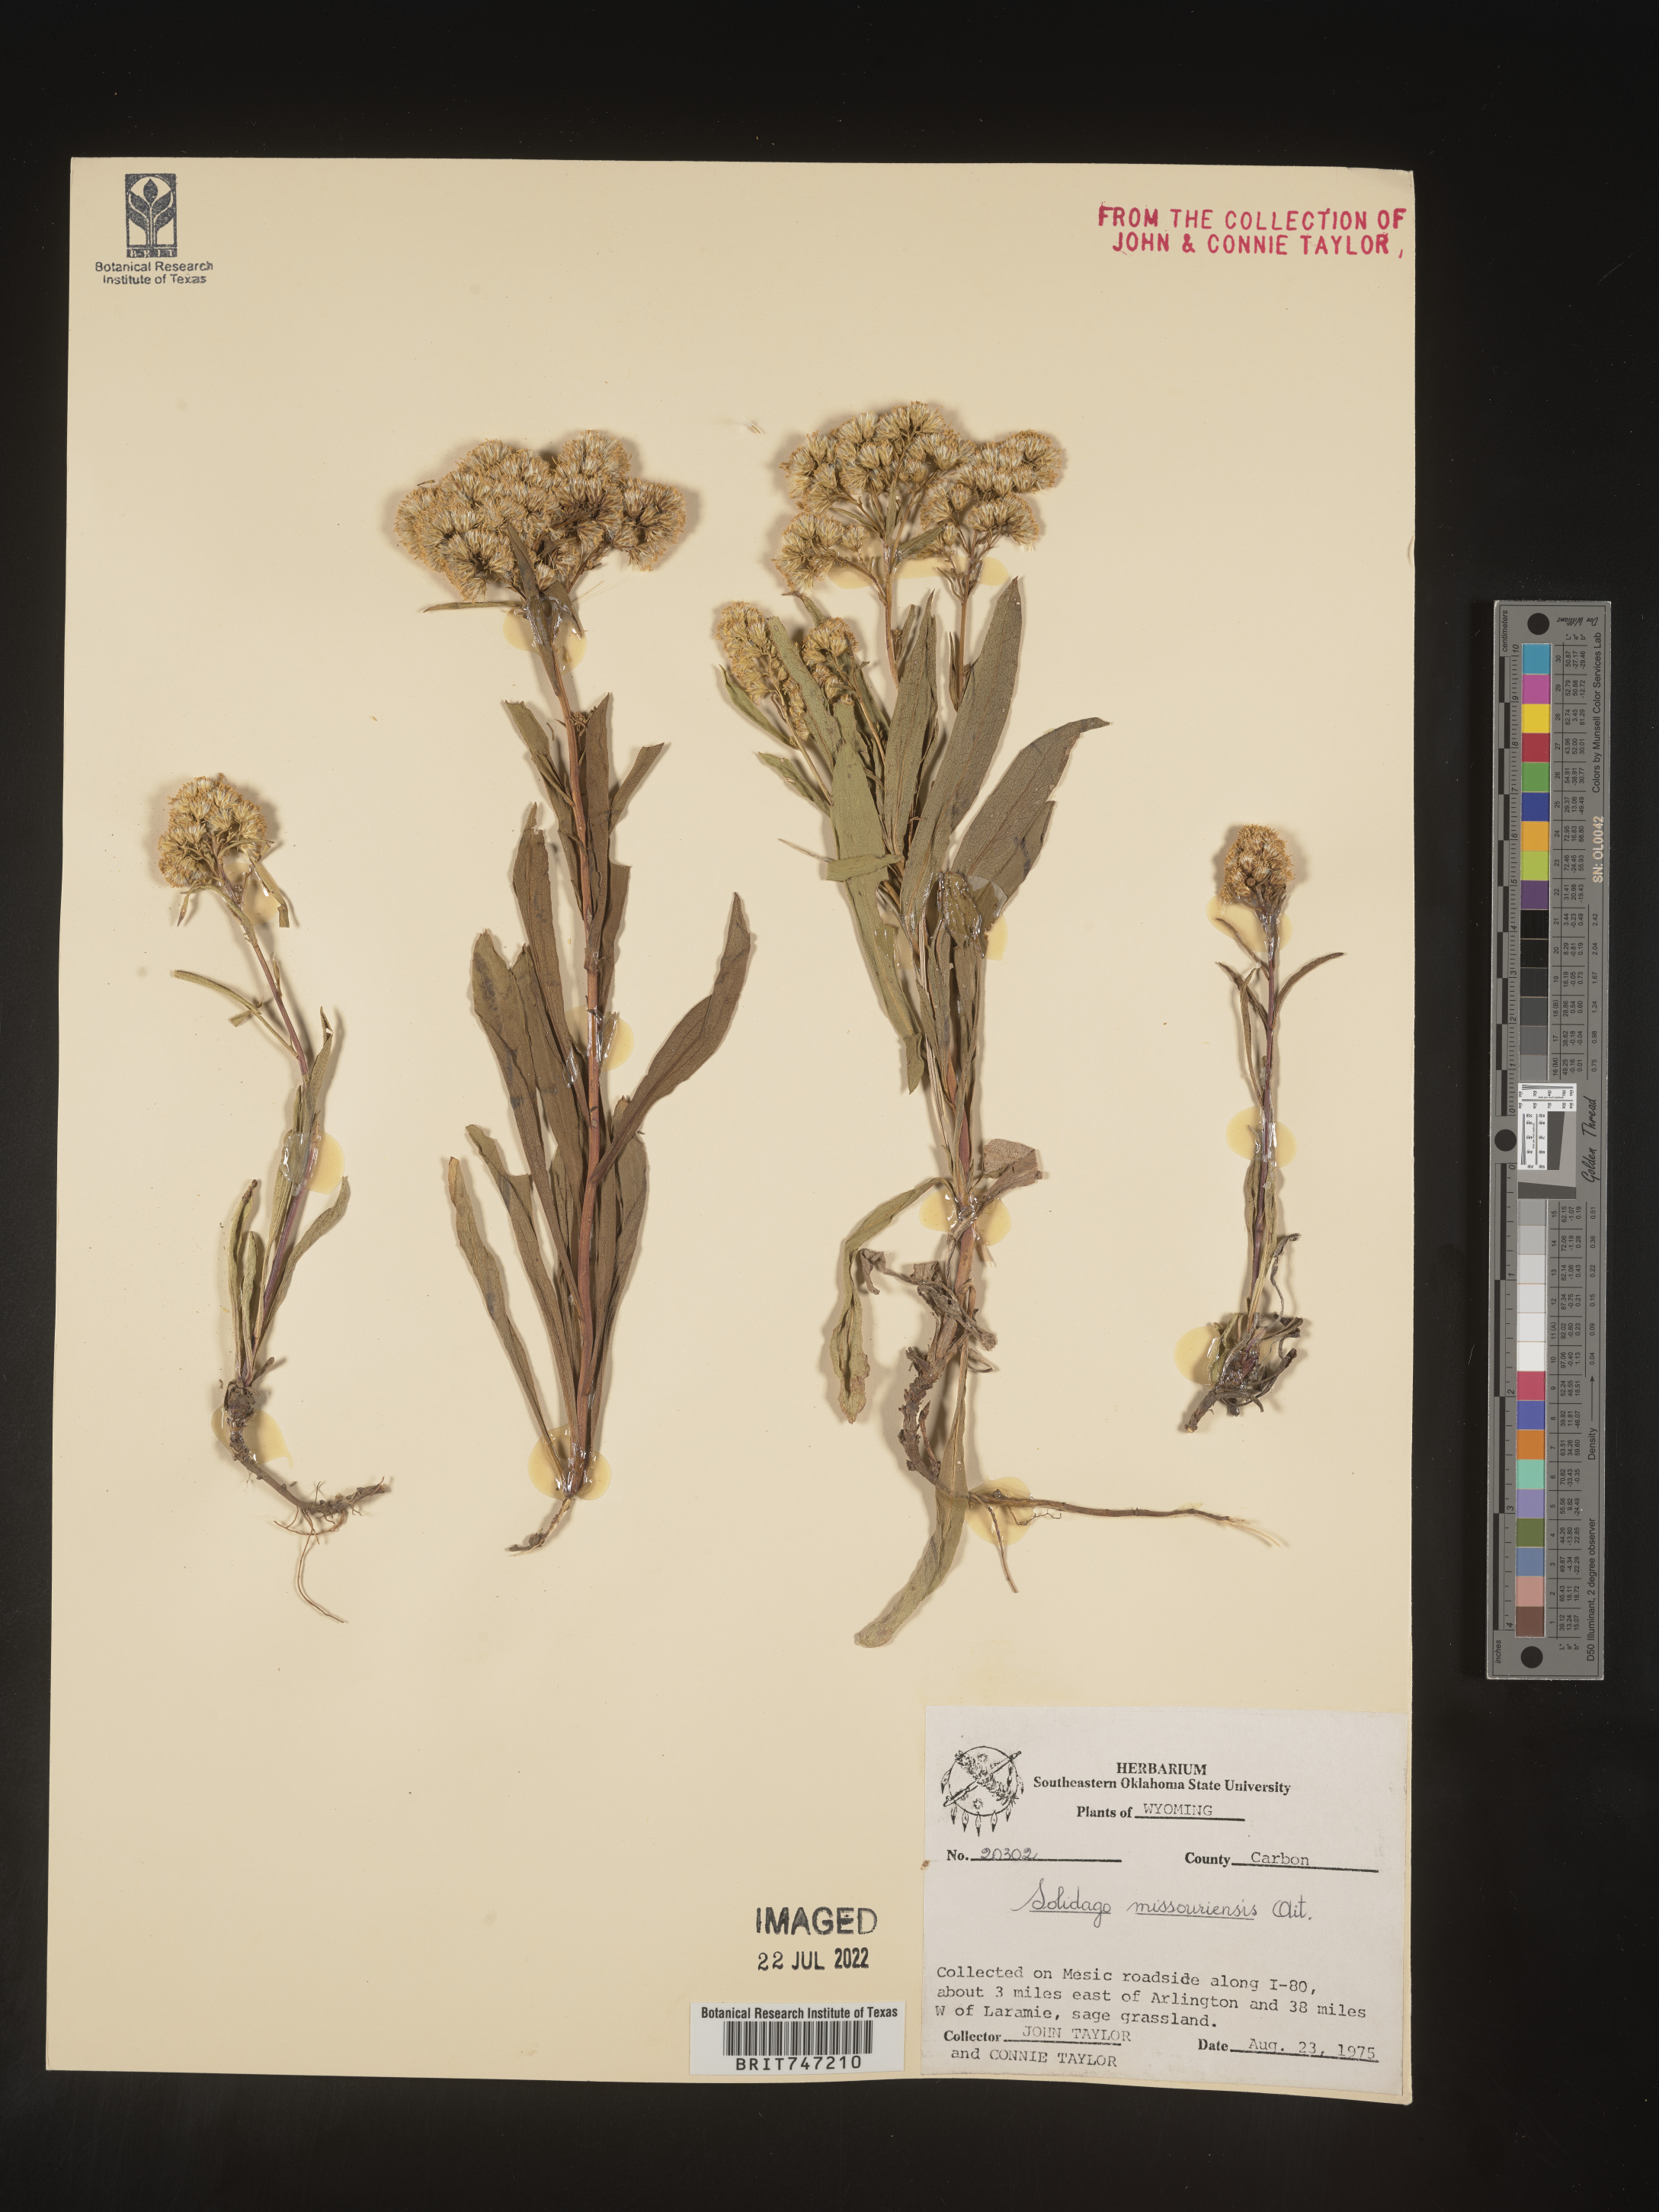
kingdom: Plantae
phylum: Tracheophyta
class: Magnoliopsida
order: Asterales
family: Asteraceae
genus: Solidago
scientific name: Solidago missouriensis
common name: Prairie goldenrod
